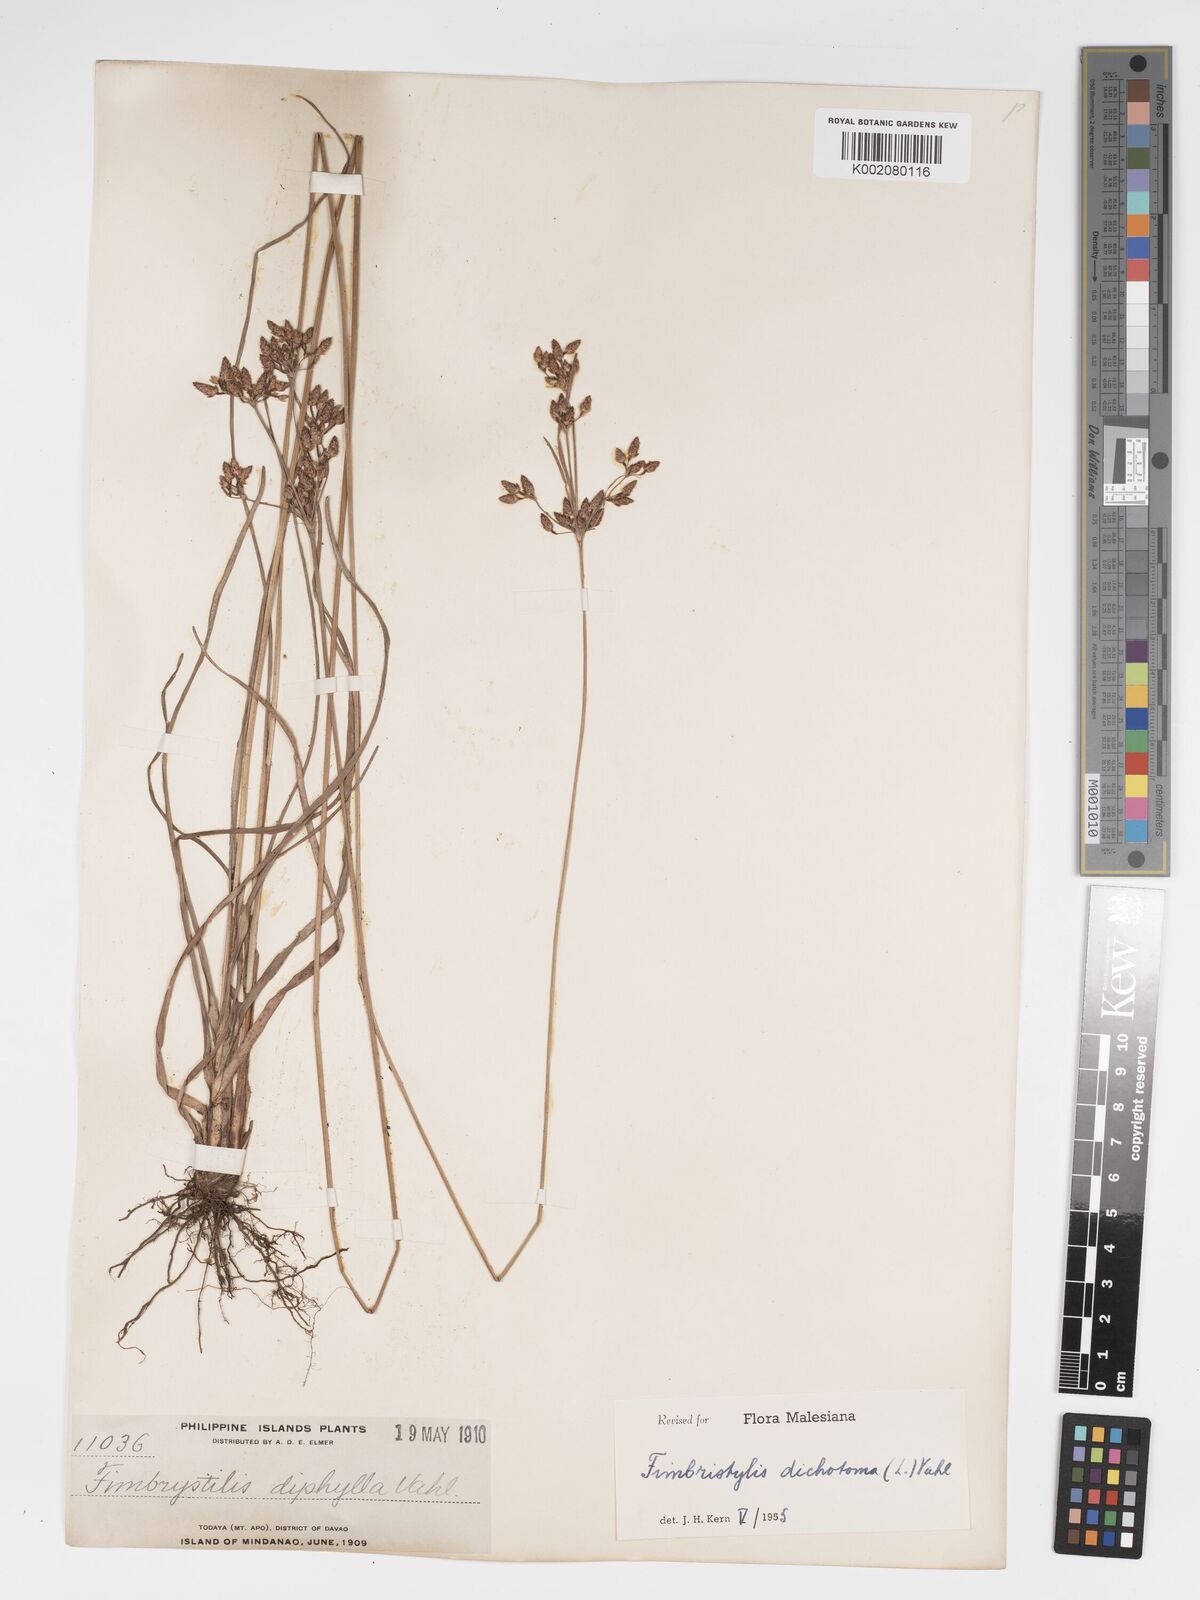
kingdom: Plantae
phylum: Tracheophyta
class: Liliopsida
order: Poales
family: Cyperaceae
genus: Fimbristylis
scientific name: Fimbristylis dichotoma
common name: Forked fimbry
